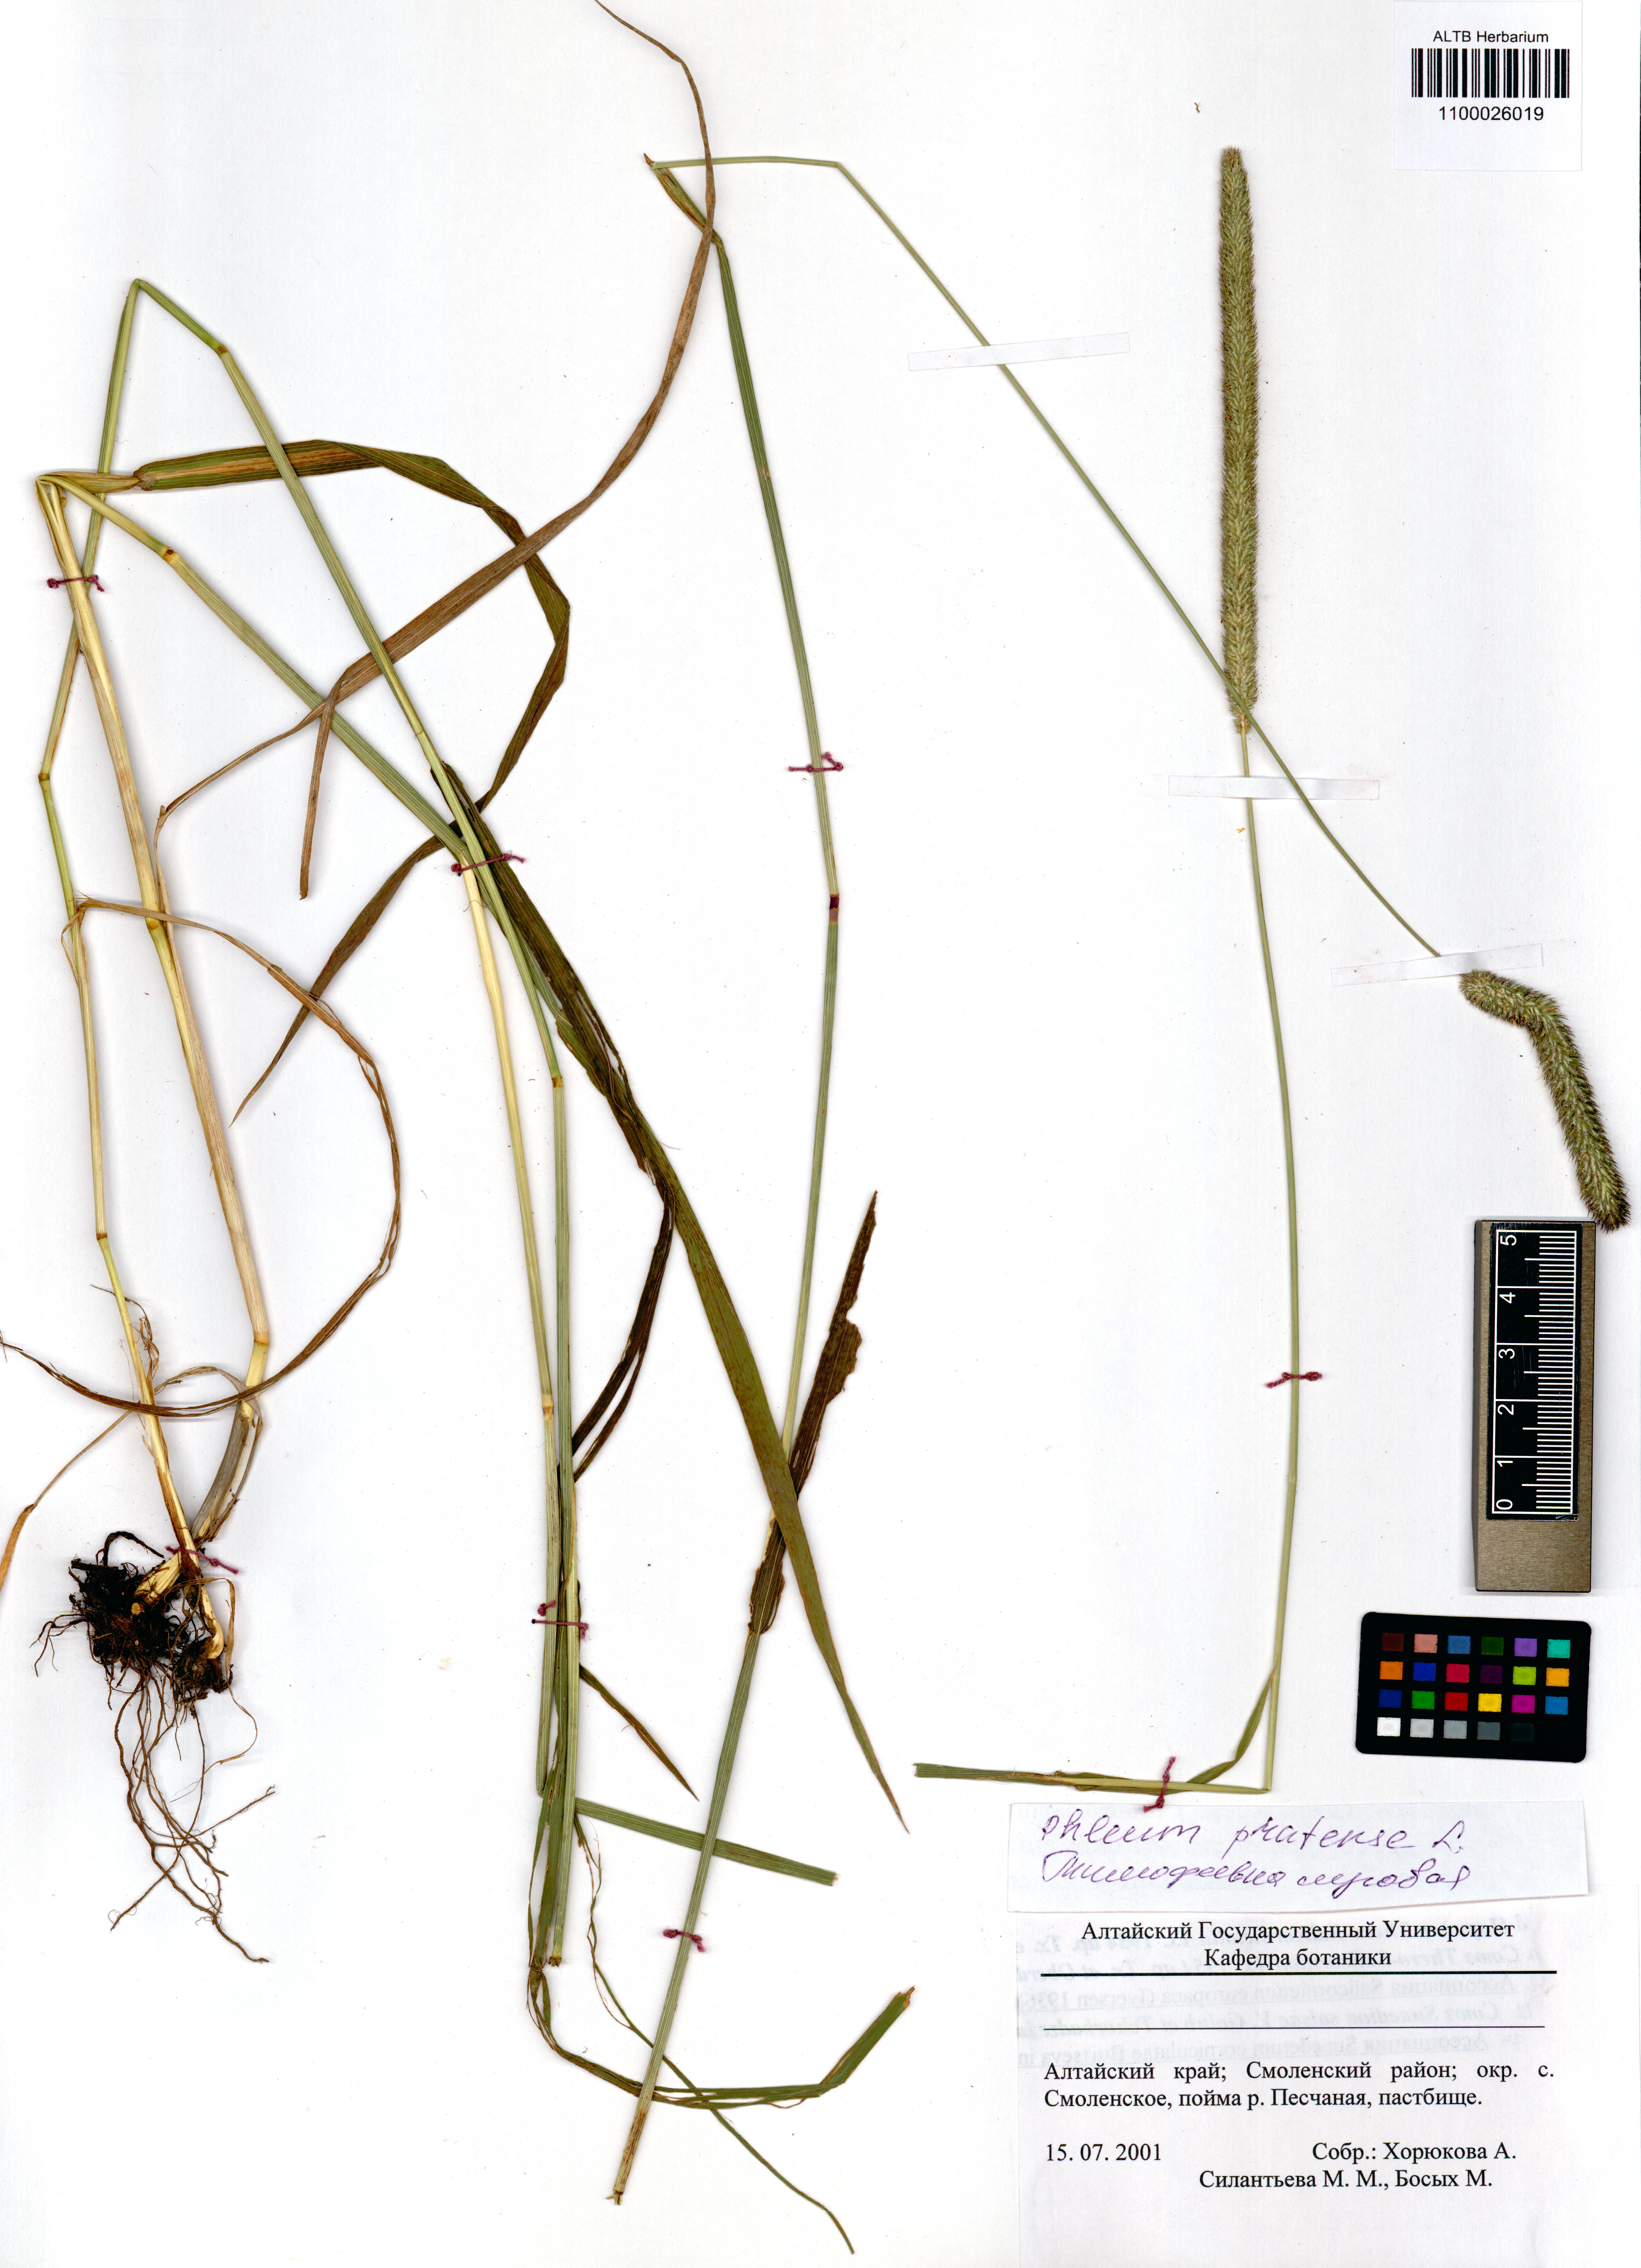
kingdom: Plantae
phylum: Tracheophyta
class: Liliopsida
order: Poales
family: Poaceae
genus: Phleum
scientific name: Phleum pratense
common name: Timothy grass
